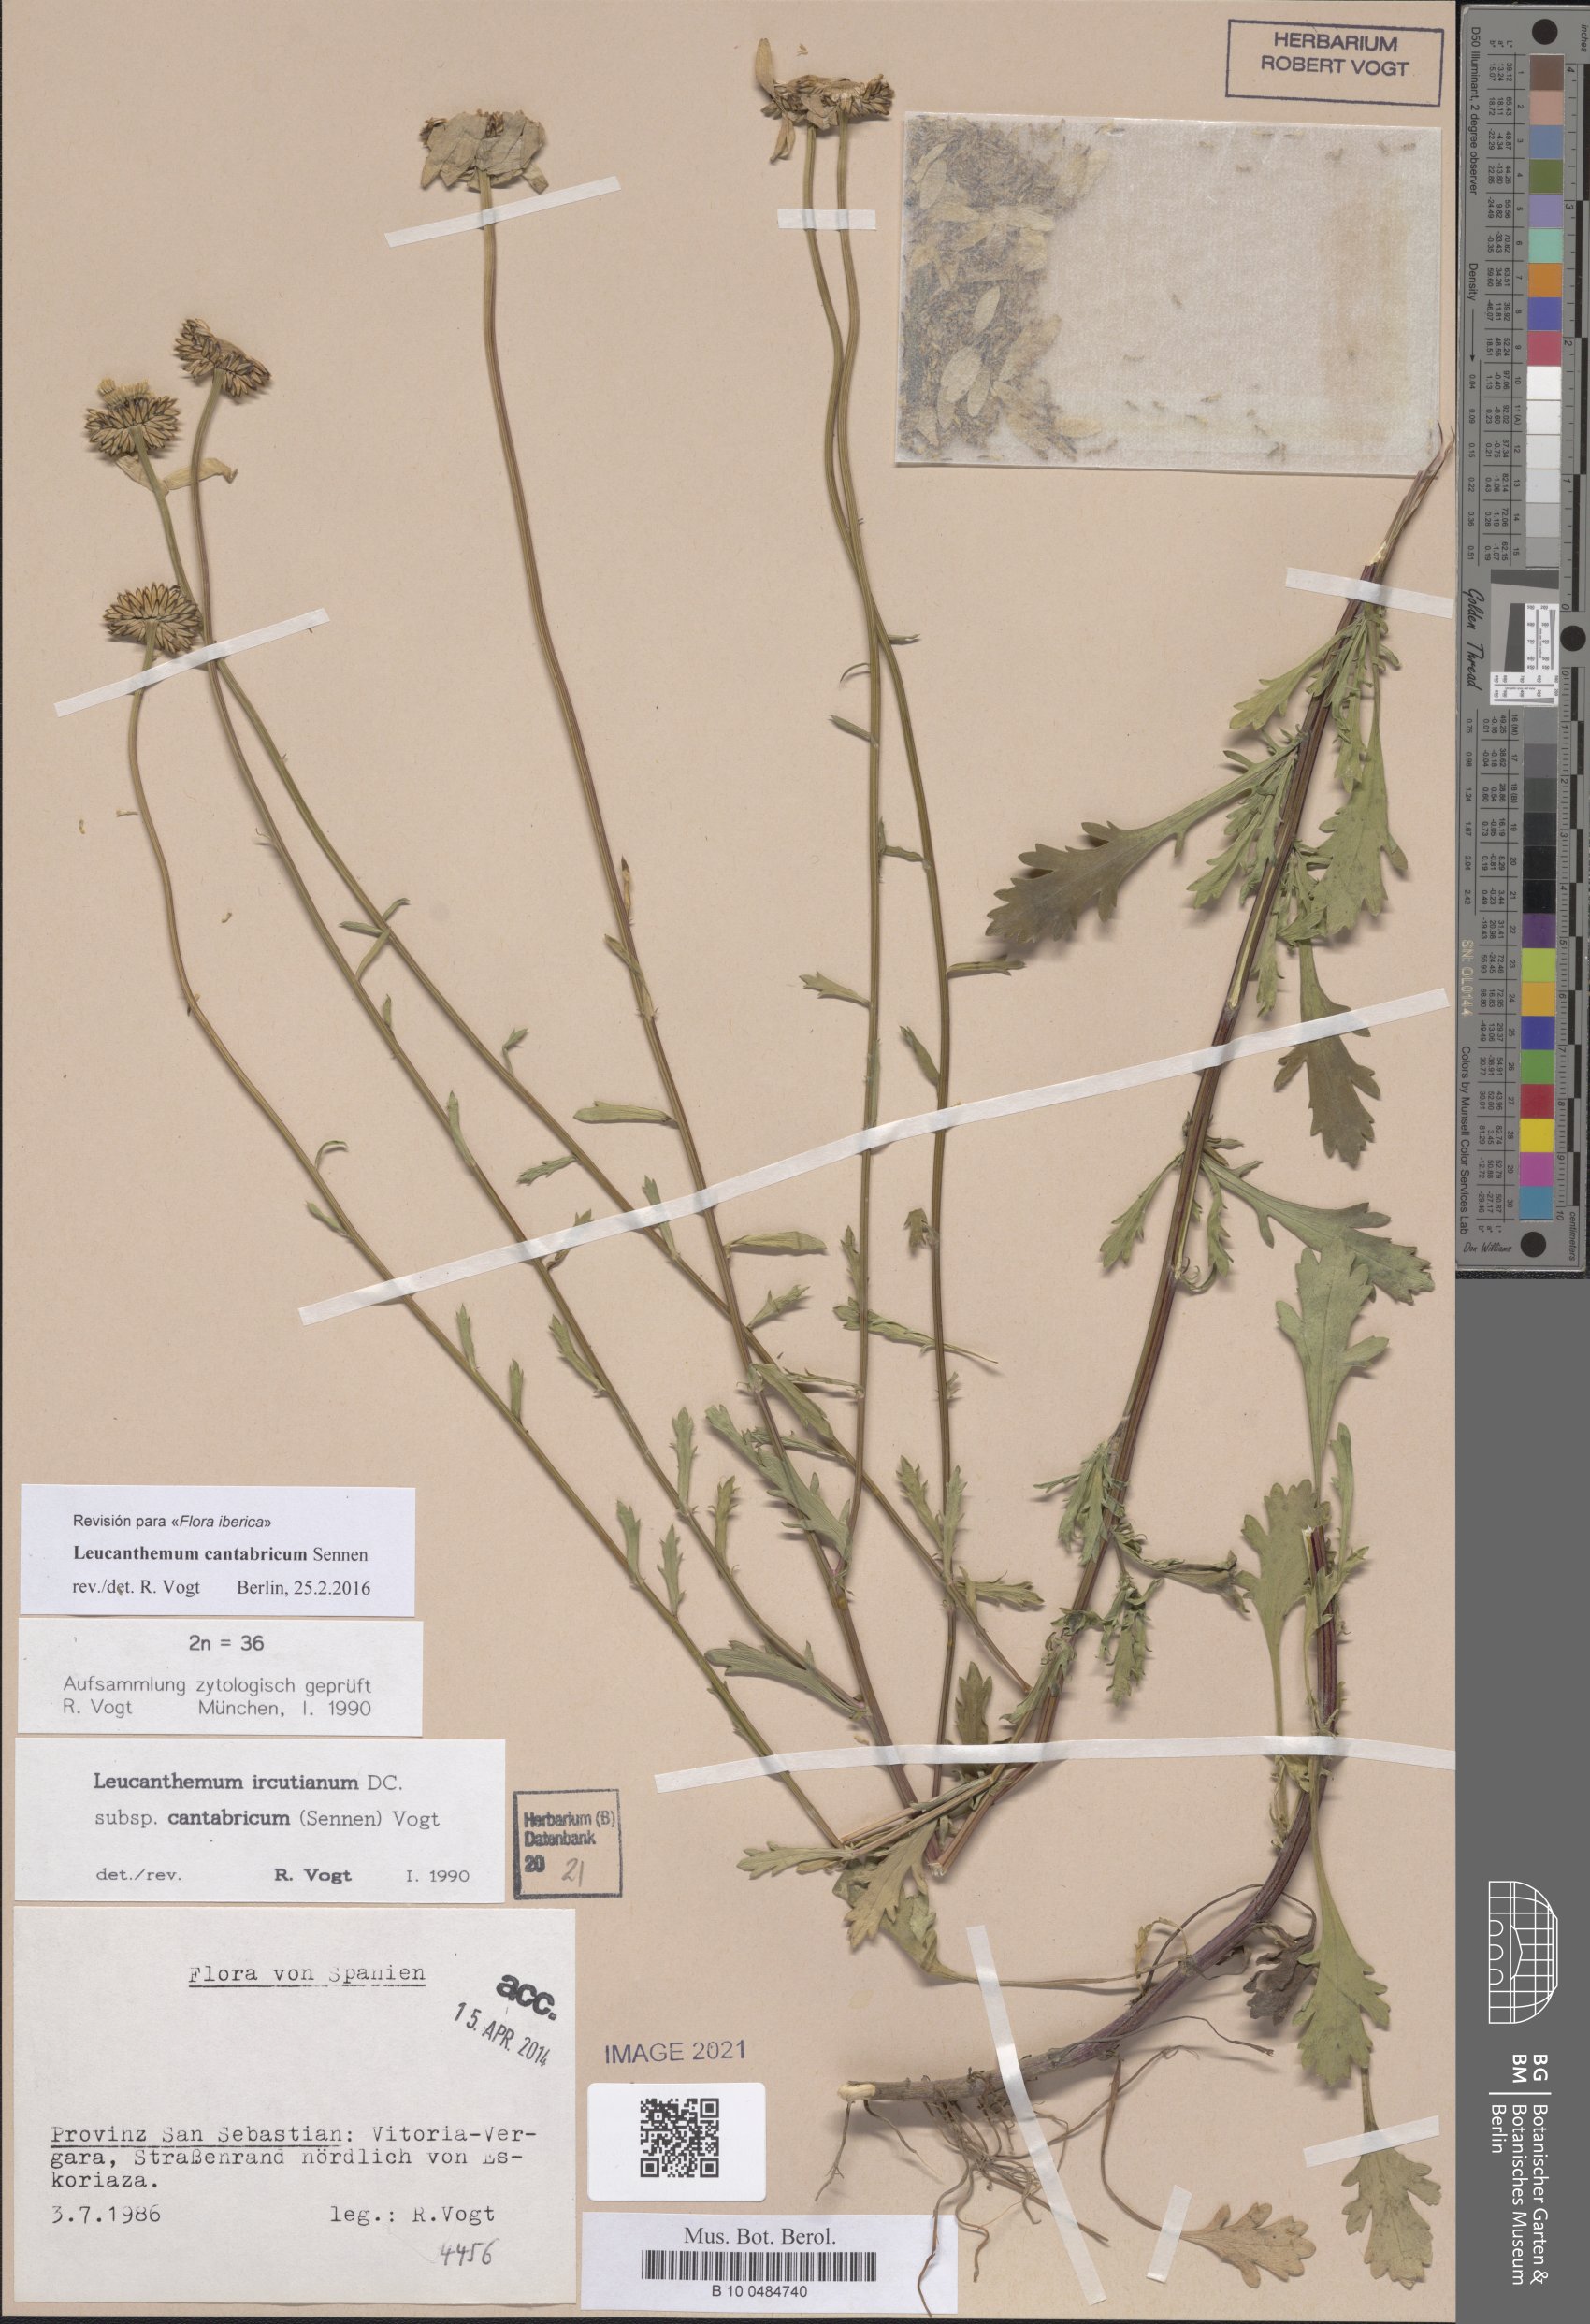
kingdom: Plantae
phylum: Tracheophyta
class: Magnoliopsida
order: Asterales
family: Asteraceae
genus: Leucanthemum
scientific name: Leucanthemum cantabricum
